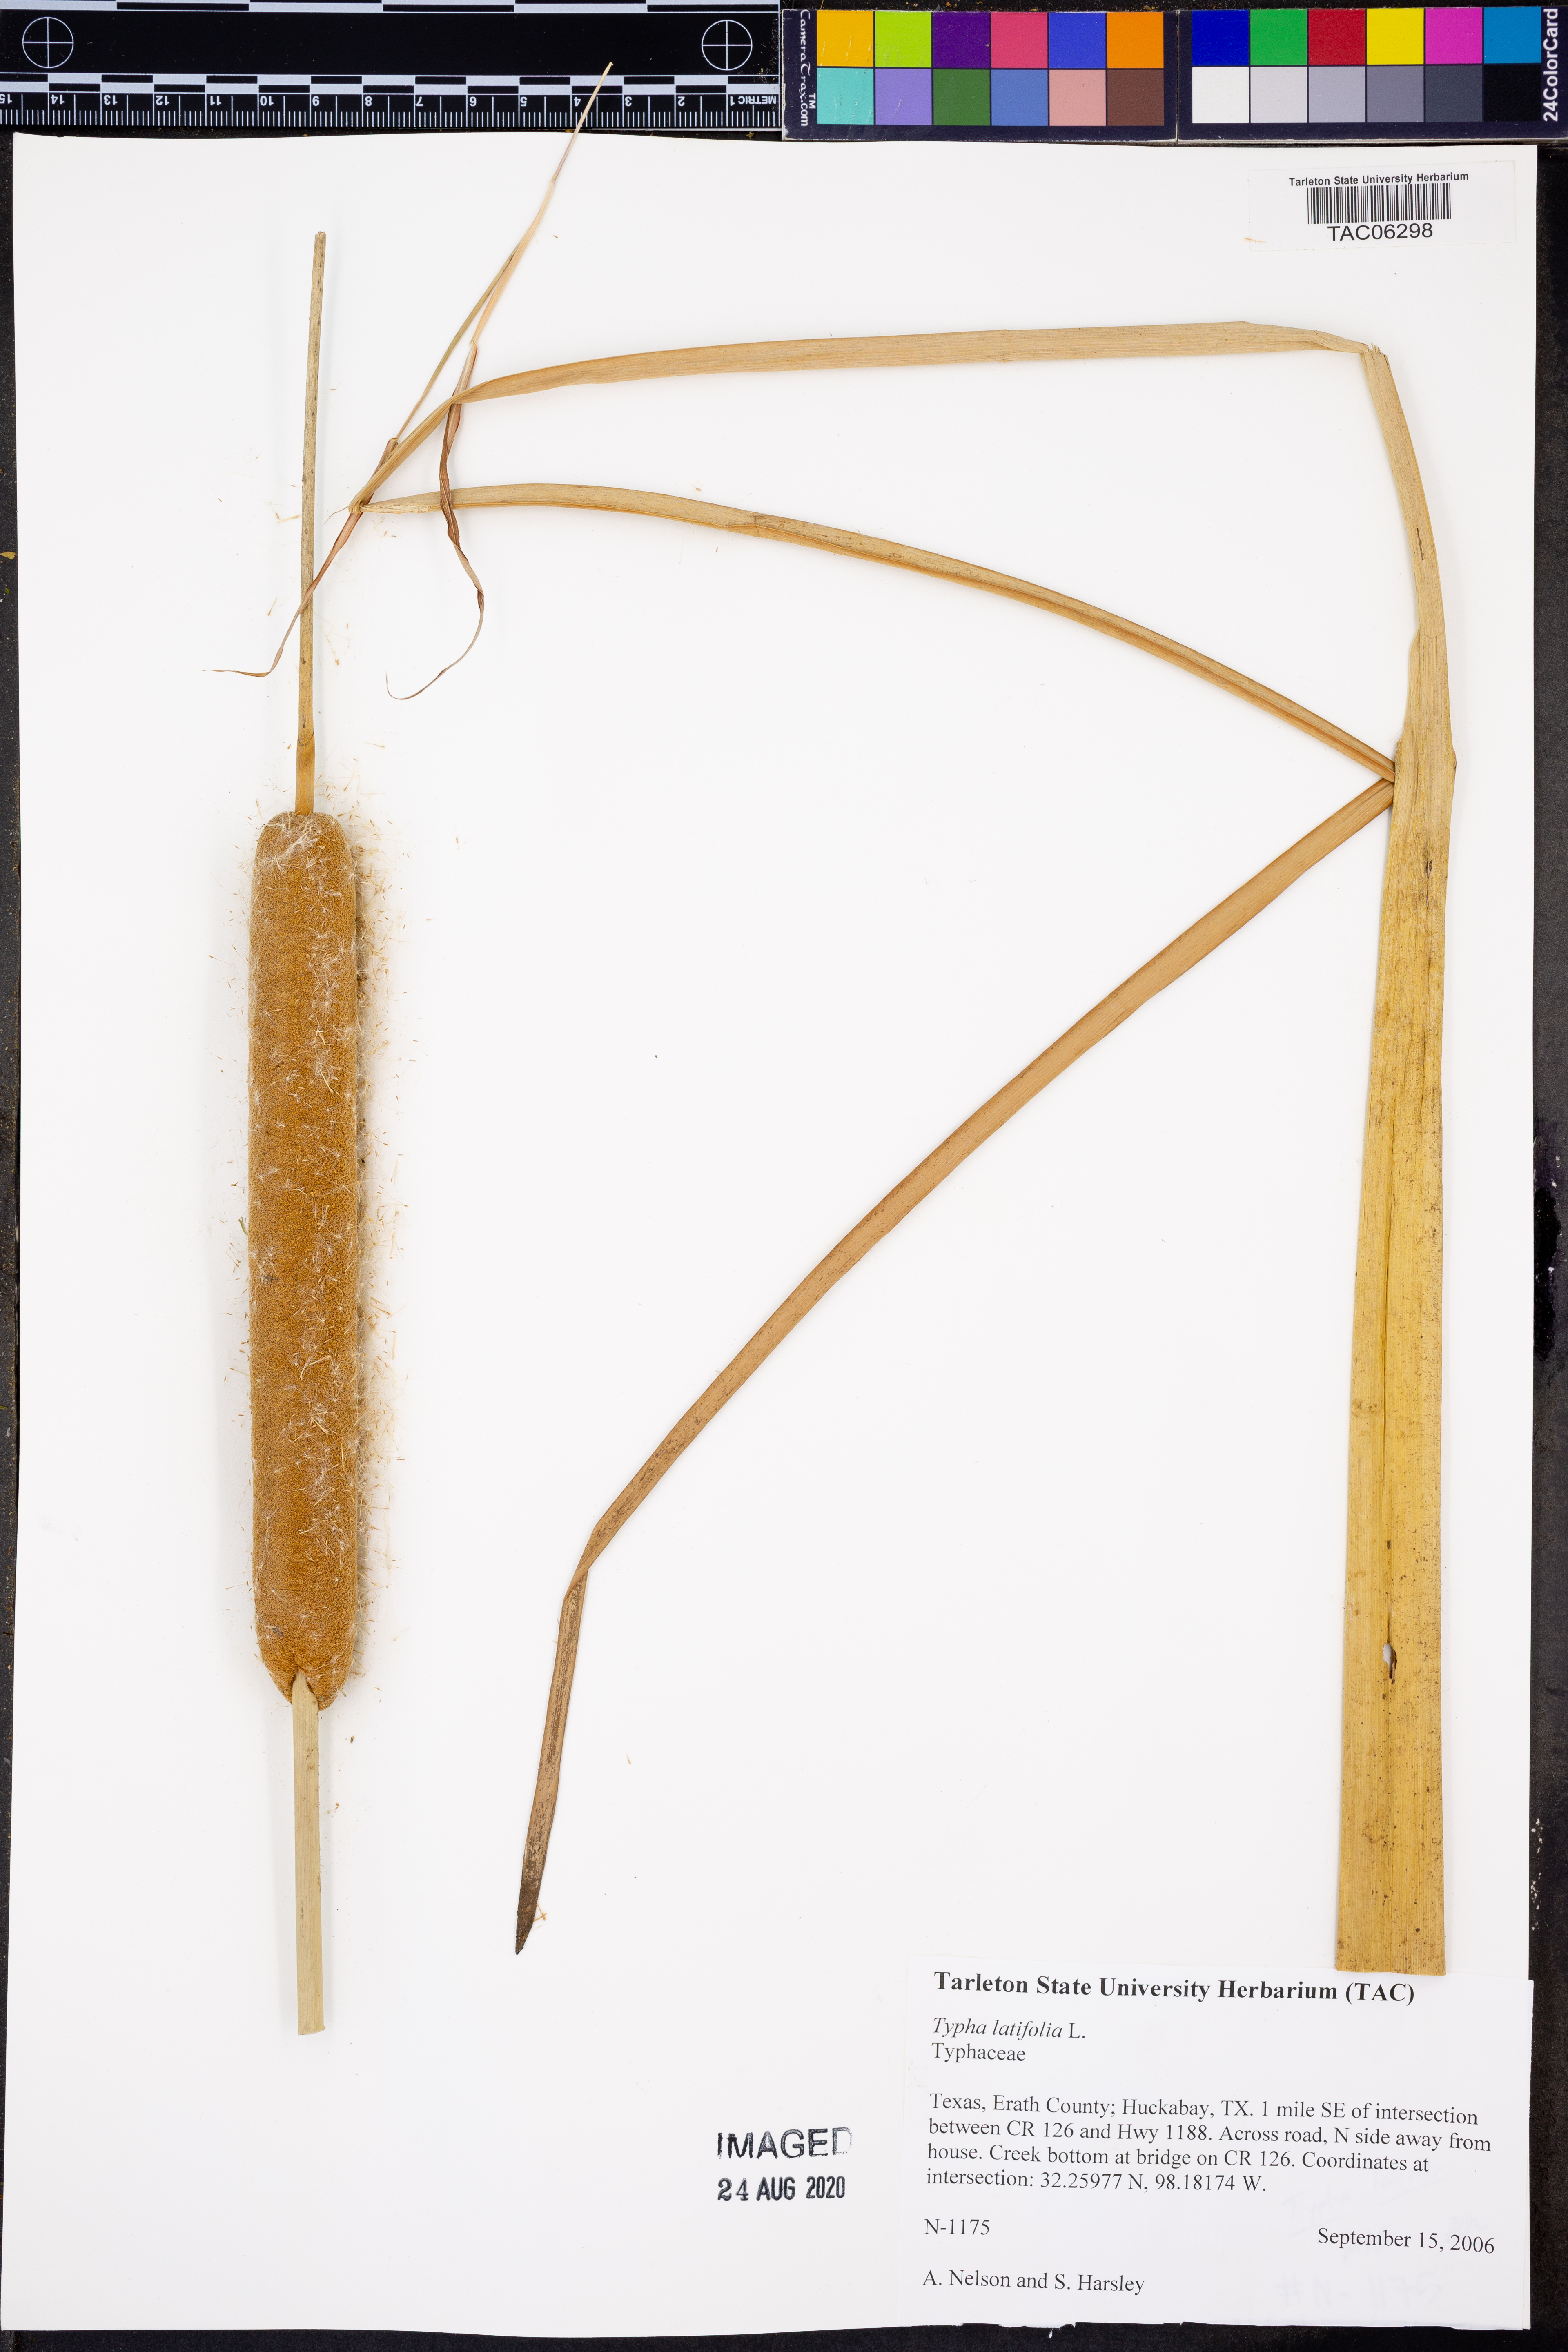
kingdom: Plantae
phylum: Tracheophyta
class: Liliopsida
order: Poales
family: Typhaceae
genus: Typha
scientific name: Typha latifolia
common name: Broadleaf cattail
